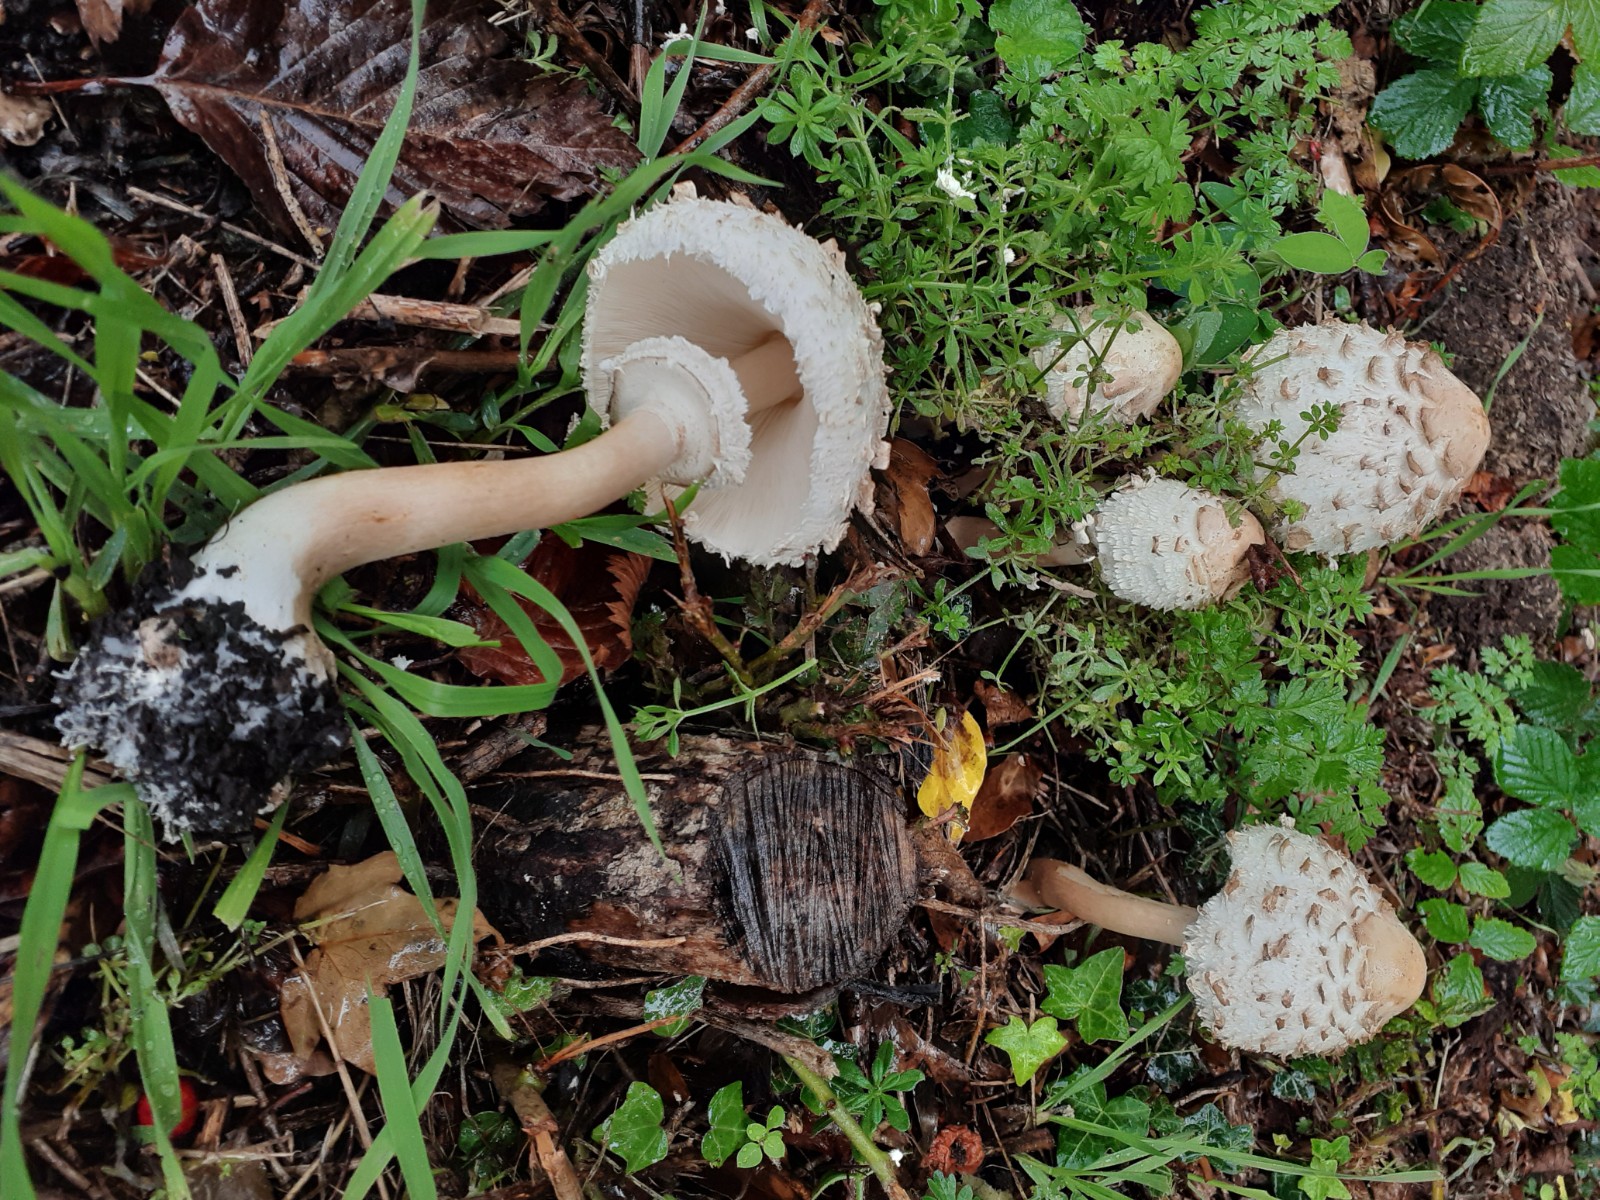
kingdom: Fungi
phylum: Basidiomycota
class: Agaricomycetes
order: Agaricales
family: Agaricaceae
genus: Chlorophyllum
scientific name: Chlorophyllum rhacodes
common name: ægte rabarberhat
